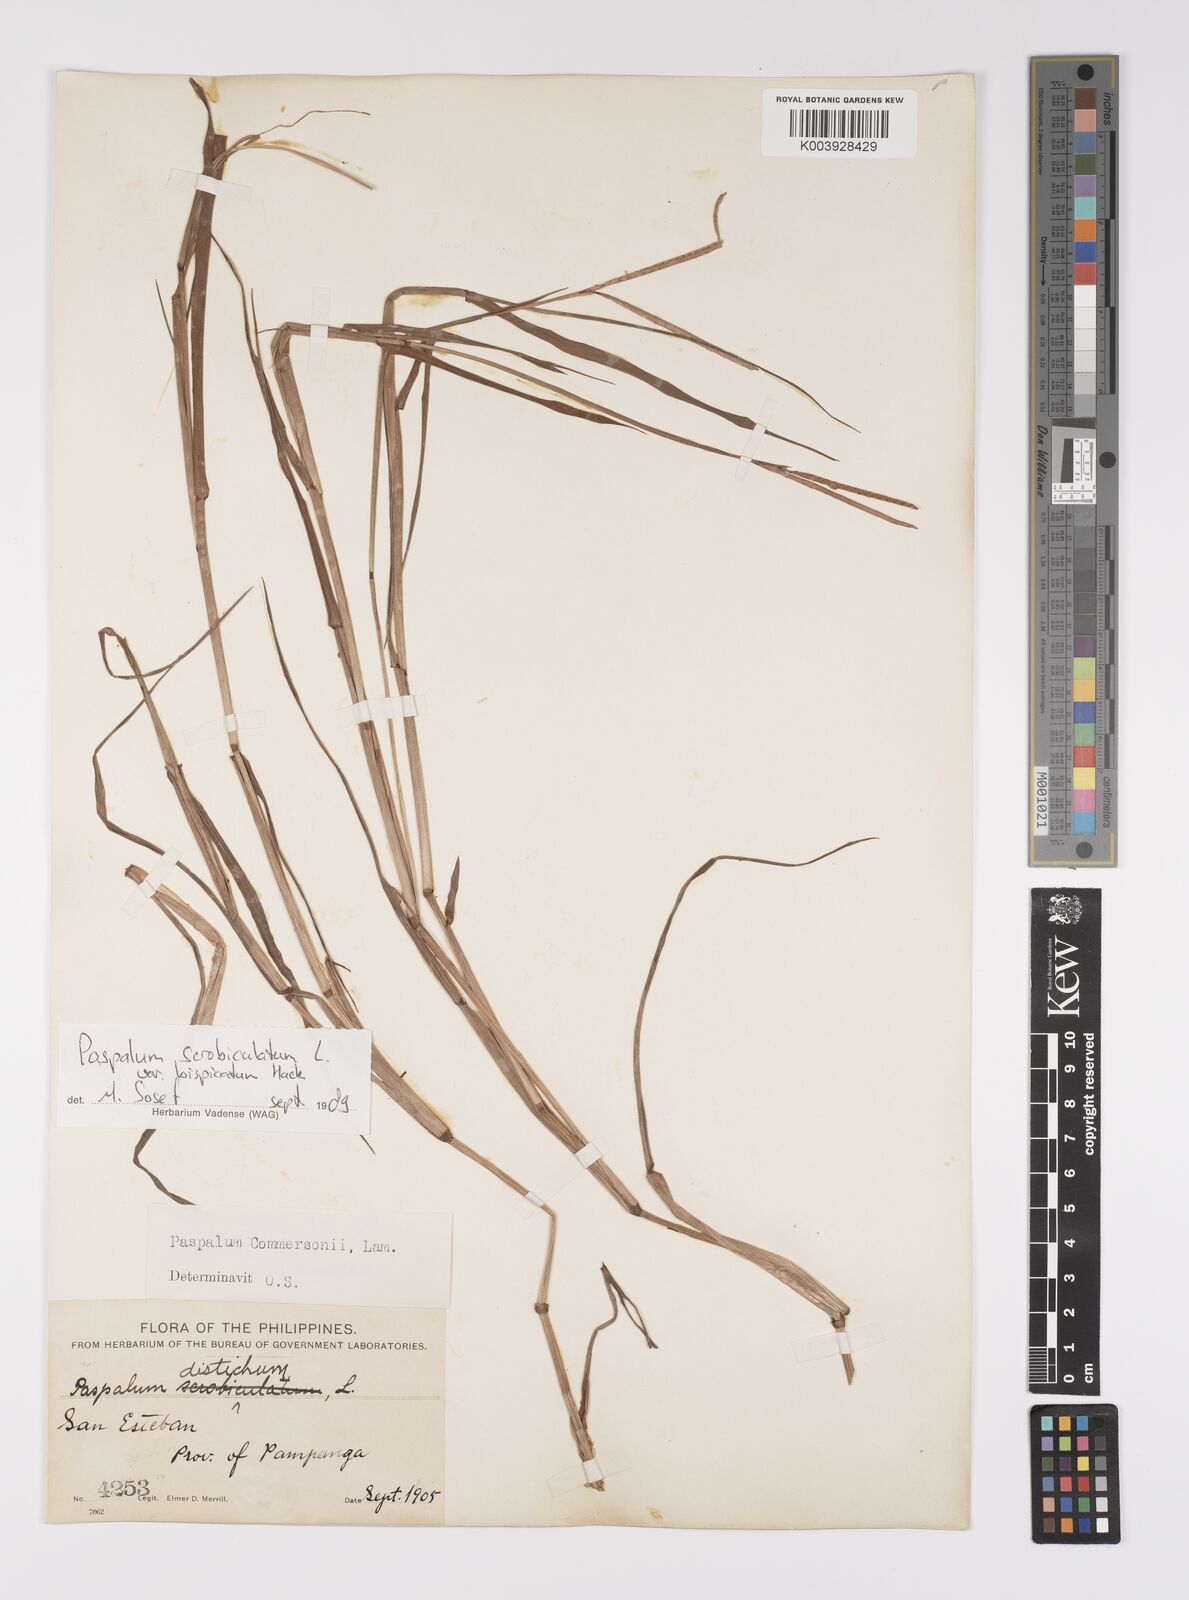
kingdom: Plantae
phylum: Tracheophyta
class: Liliopsida
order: Poales
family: Poaceae
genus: Paspalum
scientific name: Paspalum scrobiculatum
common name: Kodo millet
